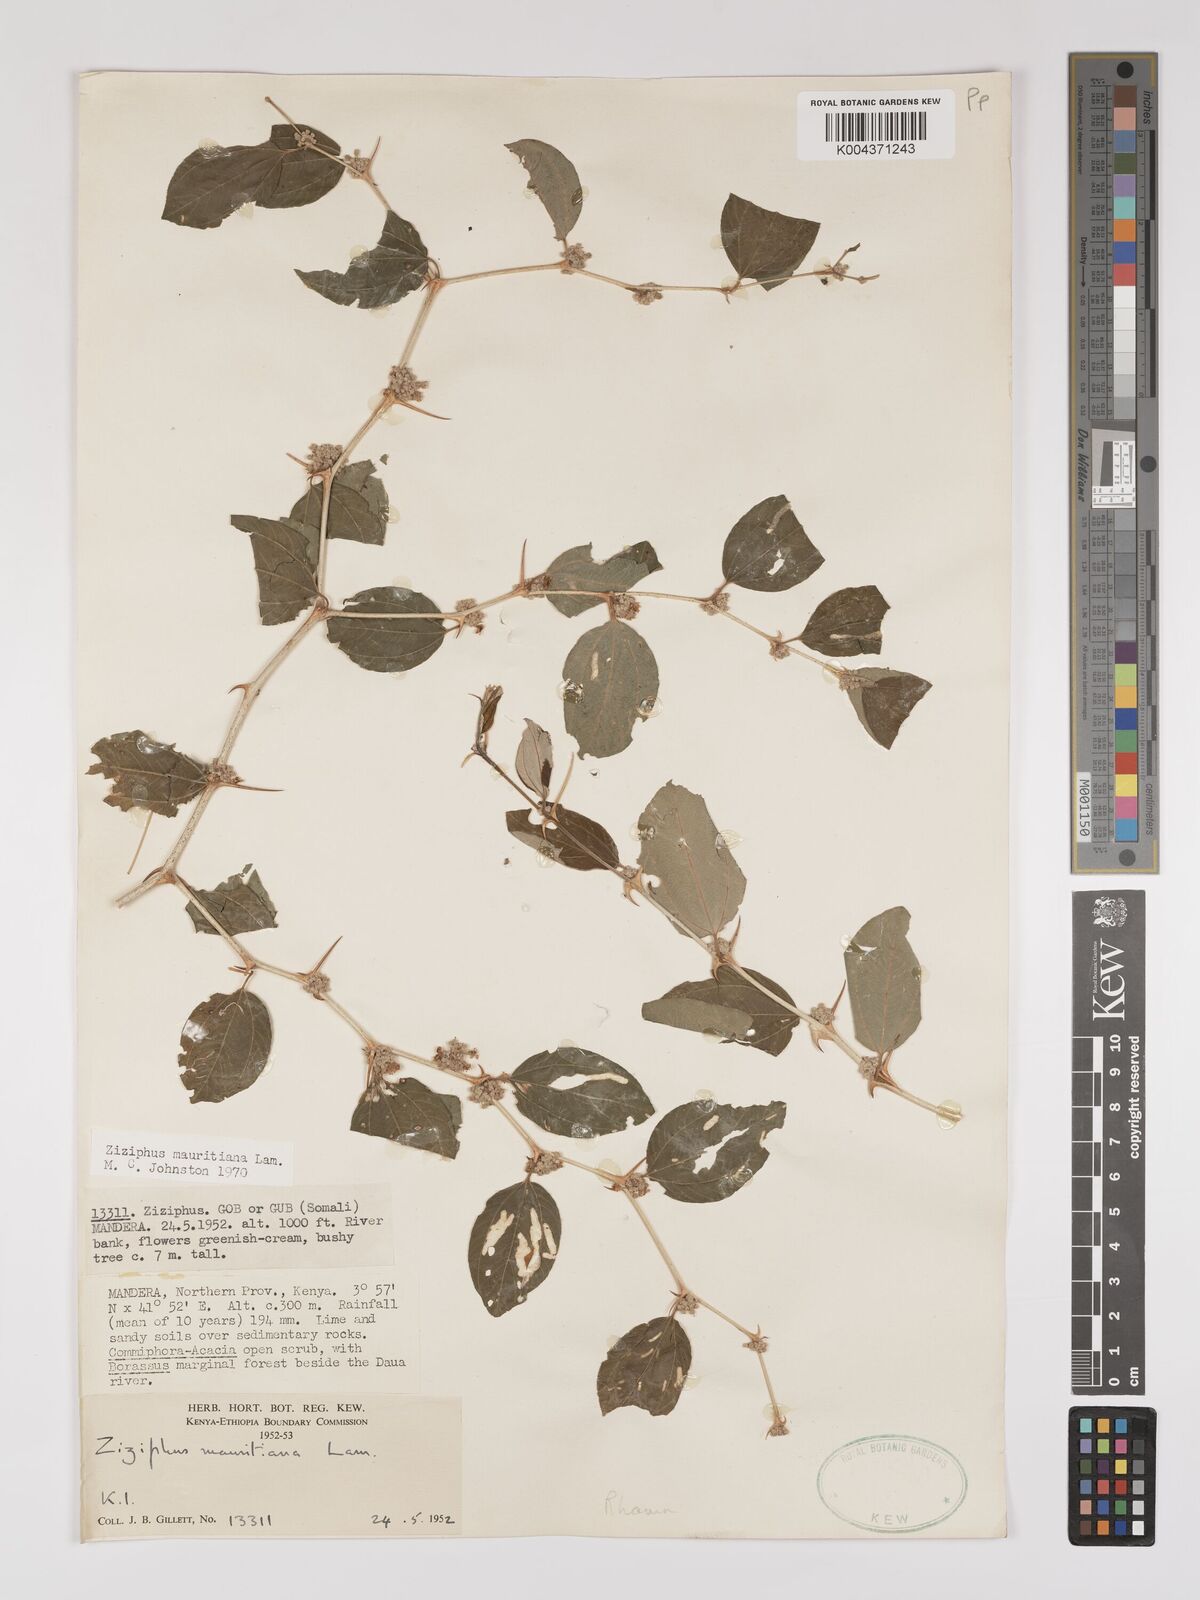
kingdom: Plantae
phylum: Tracheophyta
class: Magnoliopsida
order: Rosales
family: Rhamnaceae
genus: Ziziphus
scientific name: Ziziphus mauritiana
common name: Indian jujube
